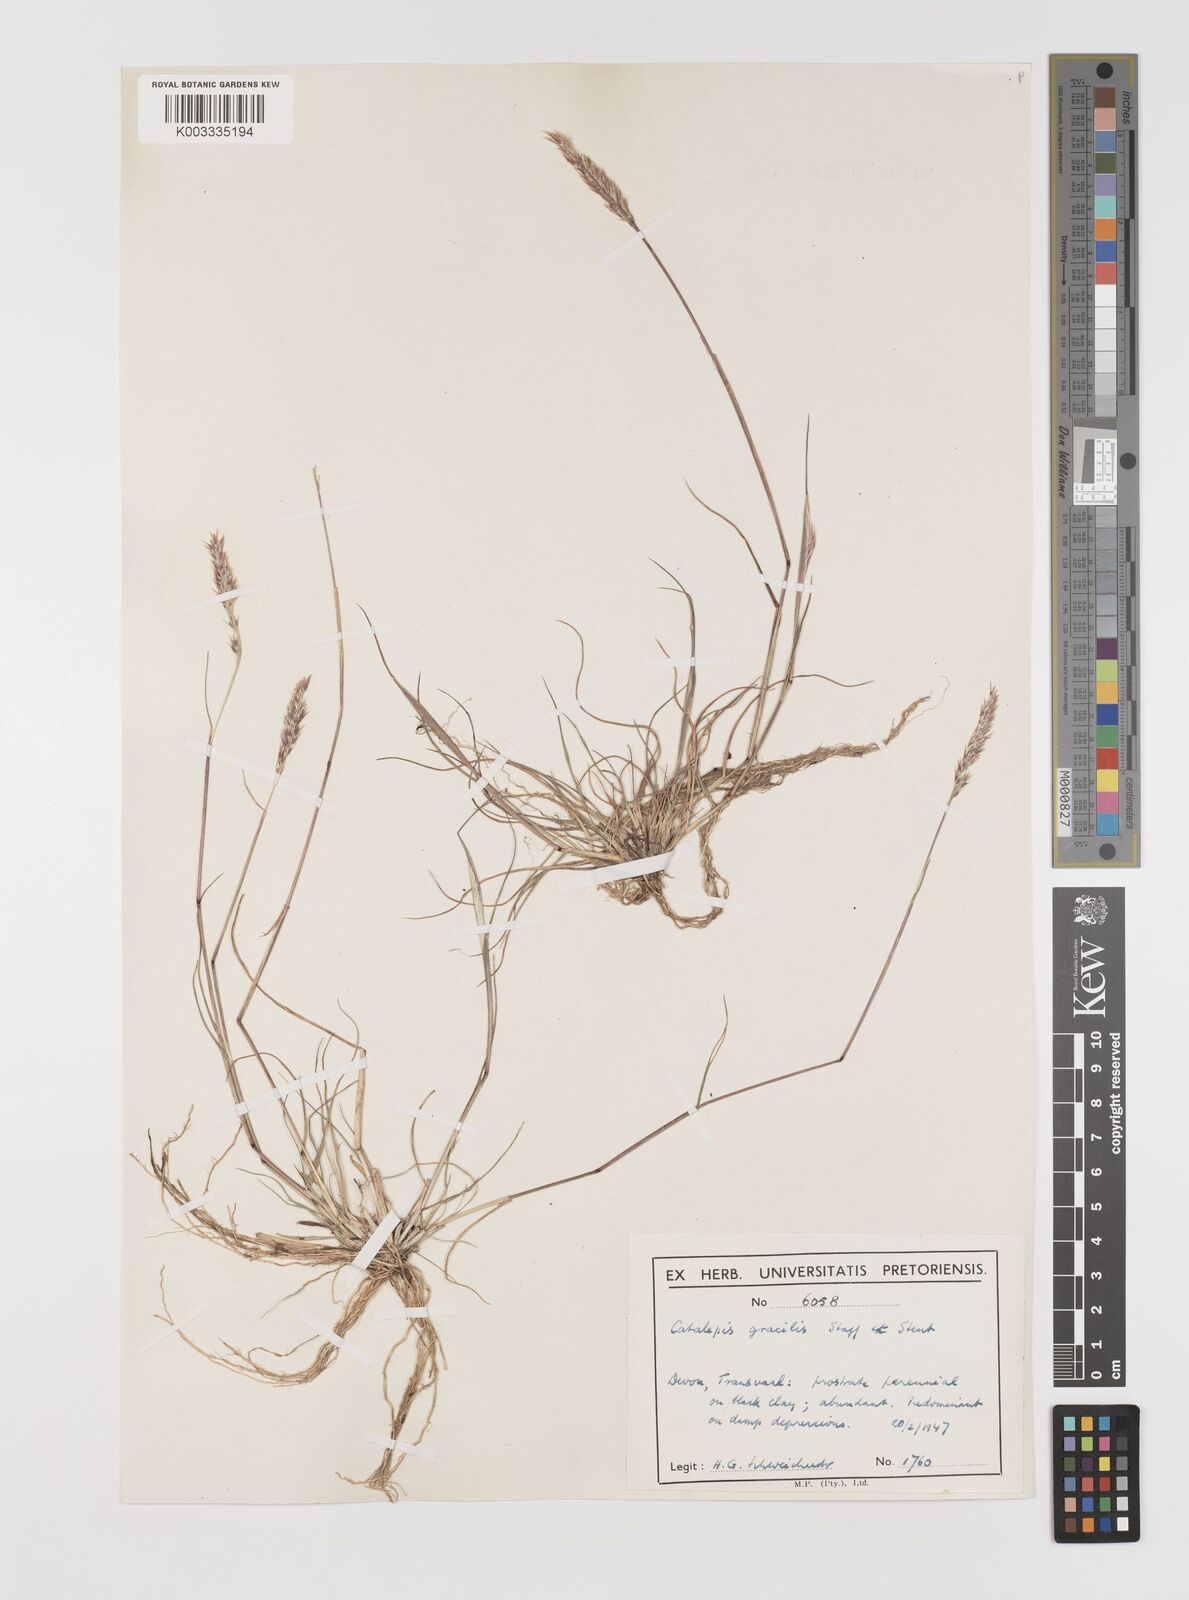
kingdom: Plantae
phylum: Tracheophyta
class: Liliopsida
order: Poales
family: Poaceae
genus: Catalepis
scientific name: Catalepis gracilis
